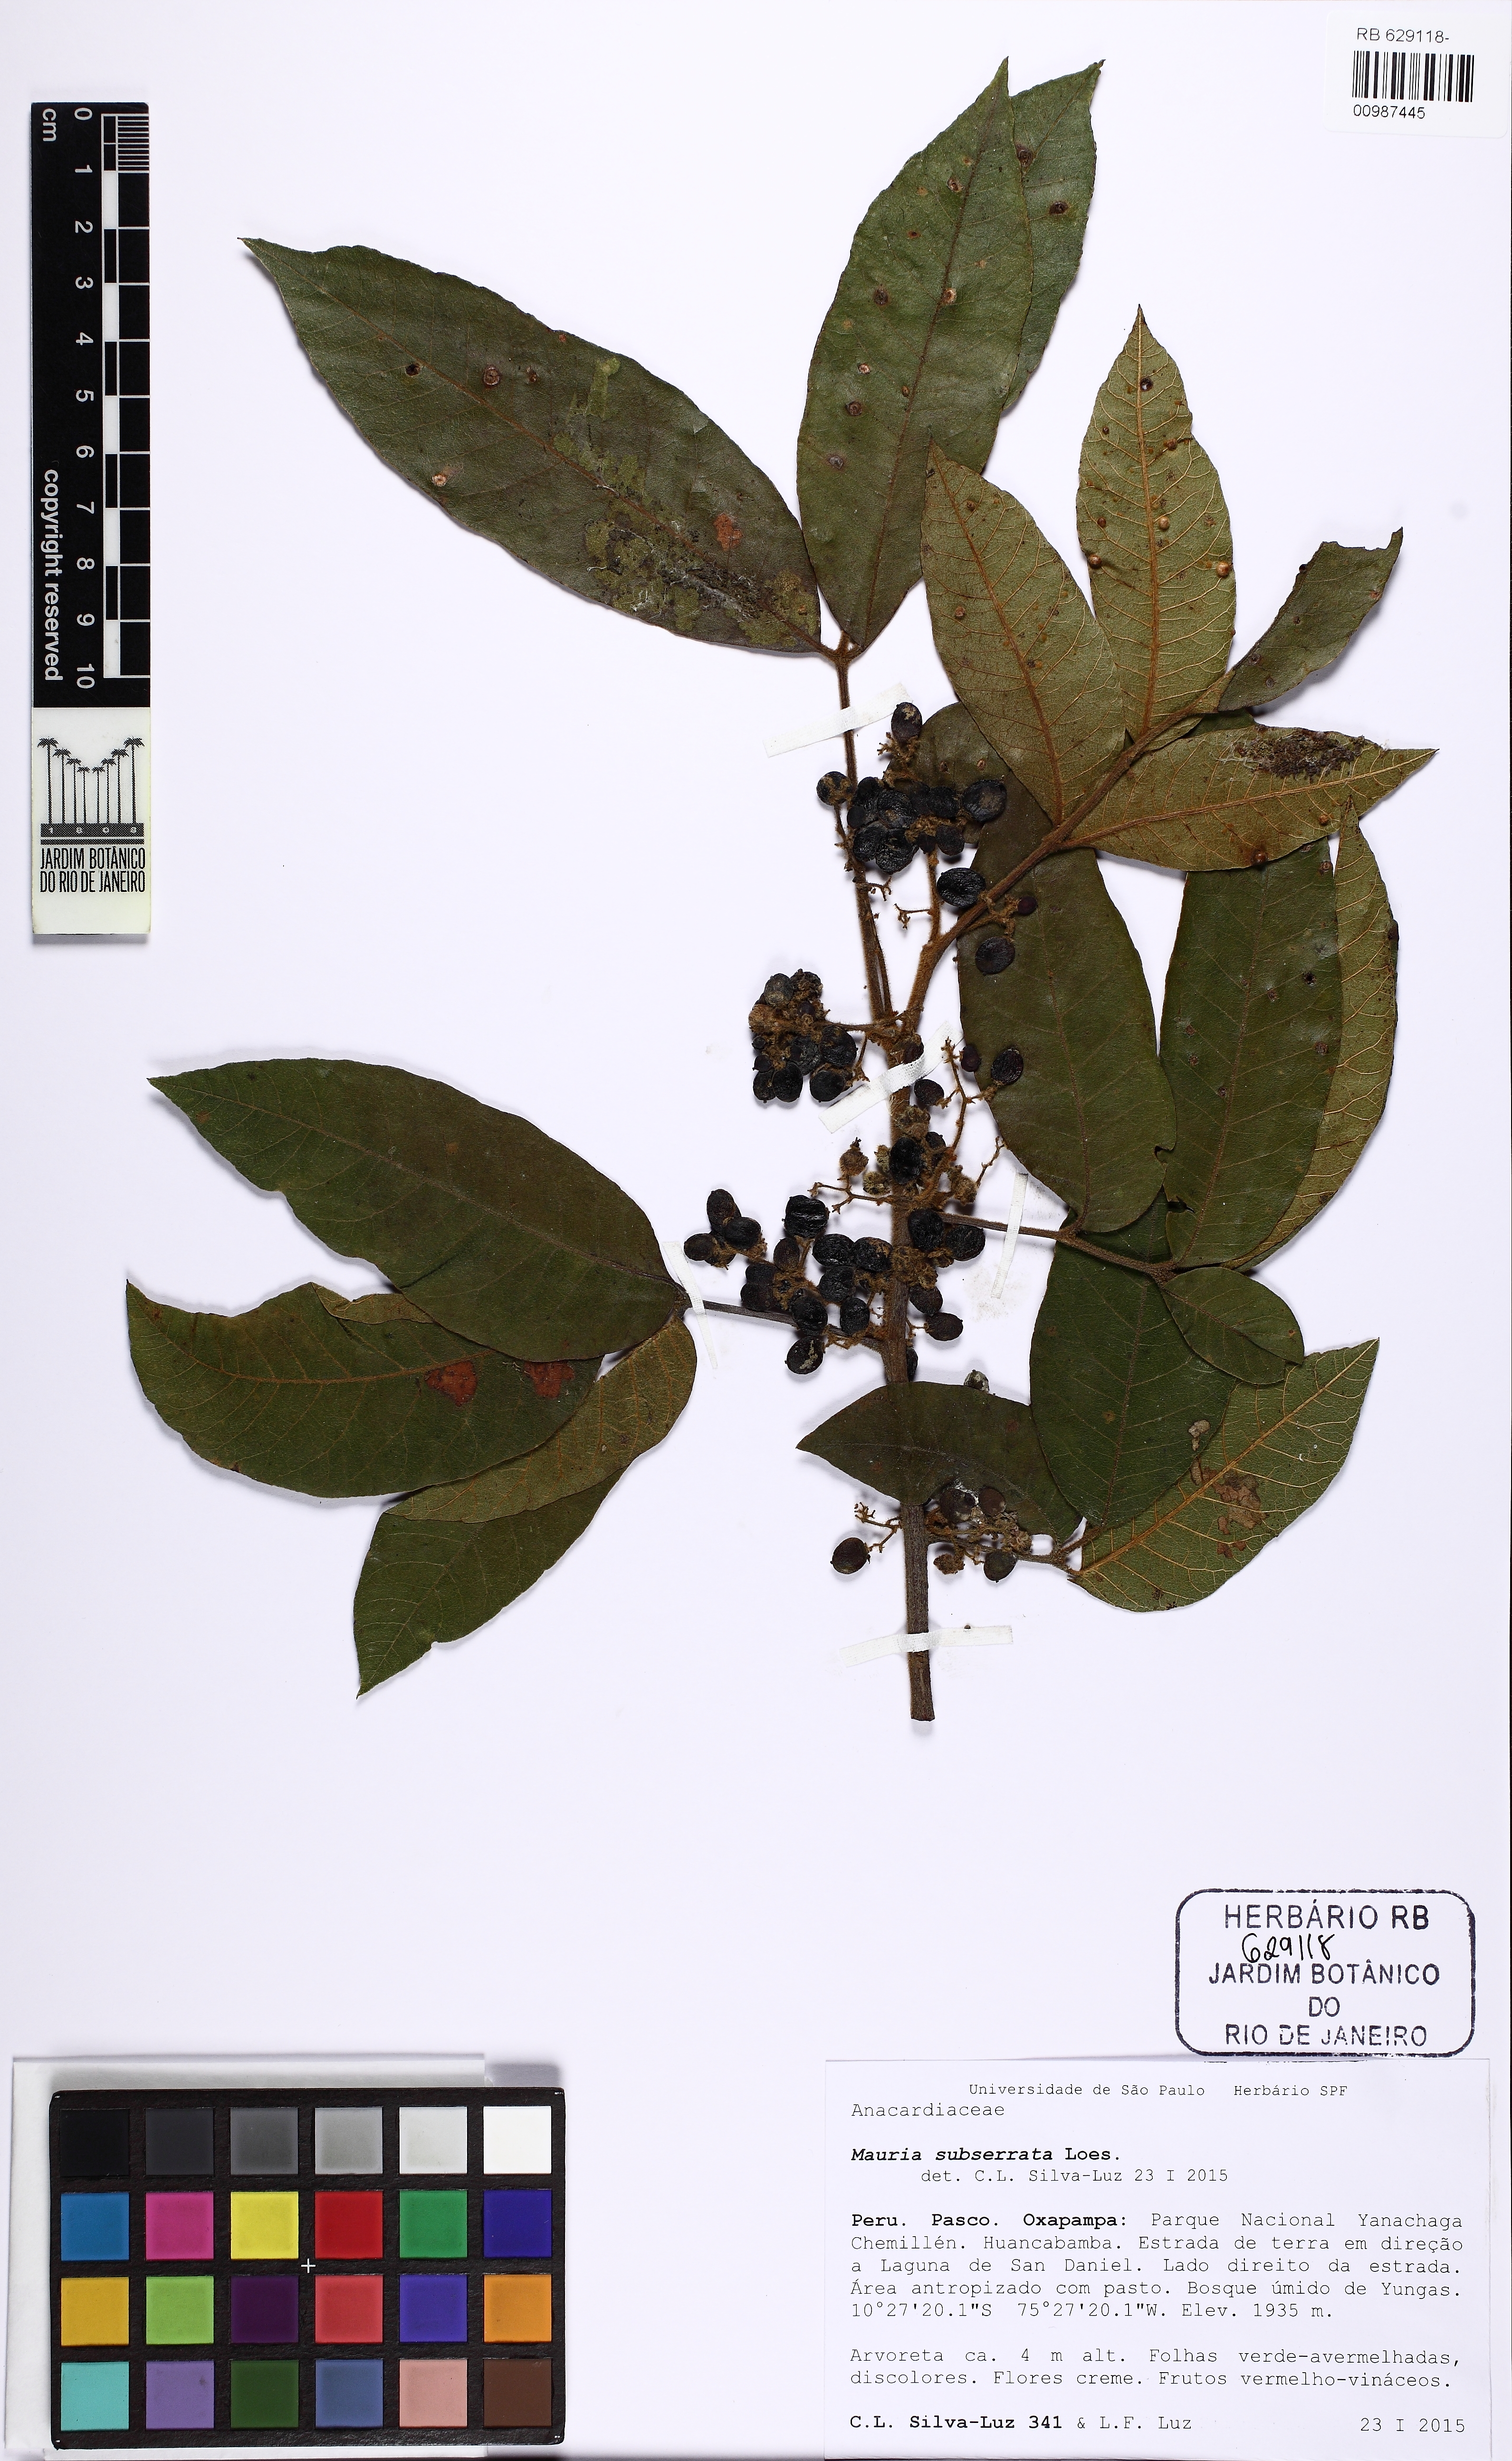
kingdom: Plantae
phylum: Tracheophyta
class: Magnoliopsida
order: Sapindales
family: Anacardiaceae
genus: Mauria
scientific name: Mauria subserrata
